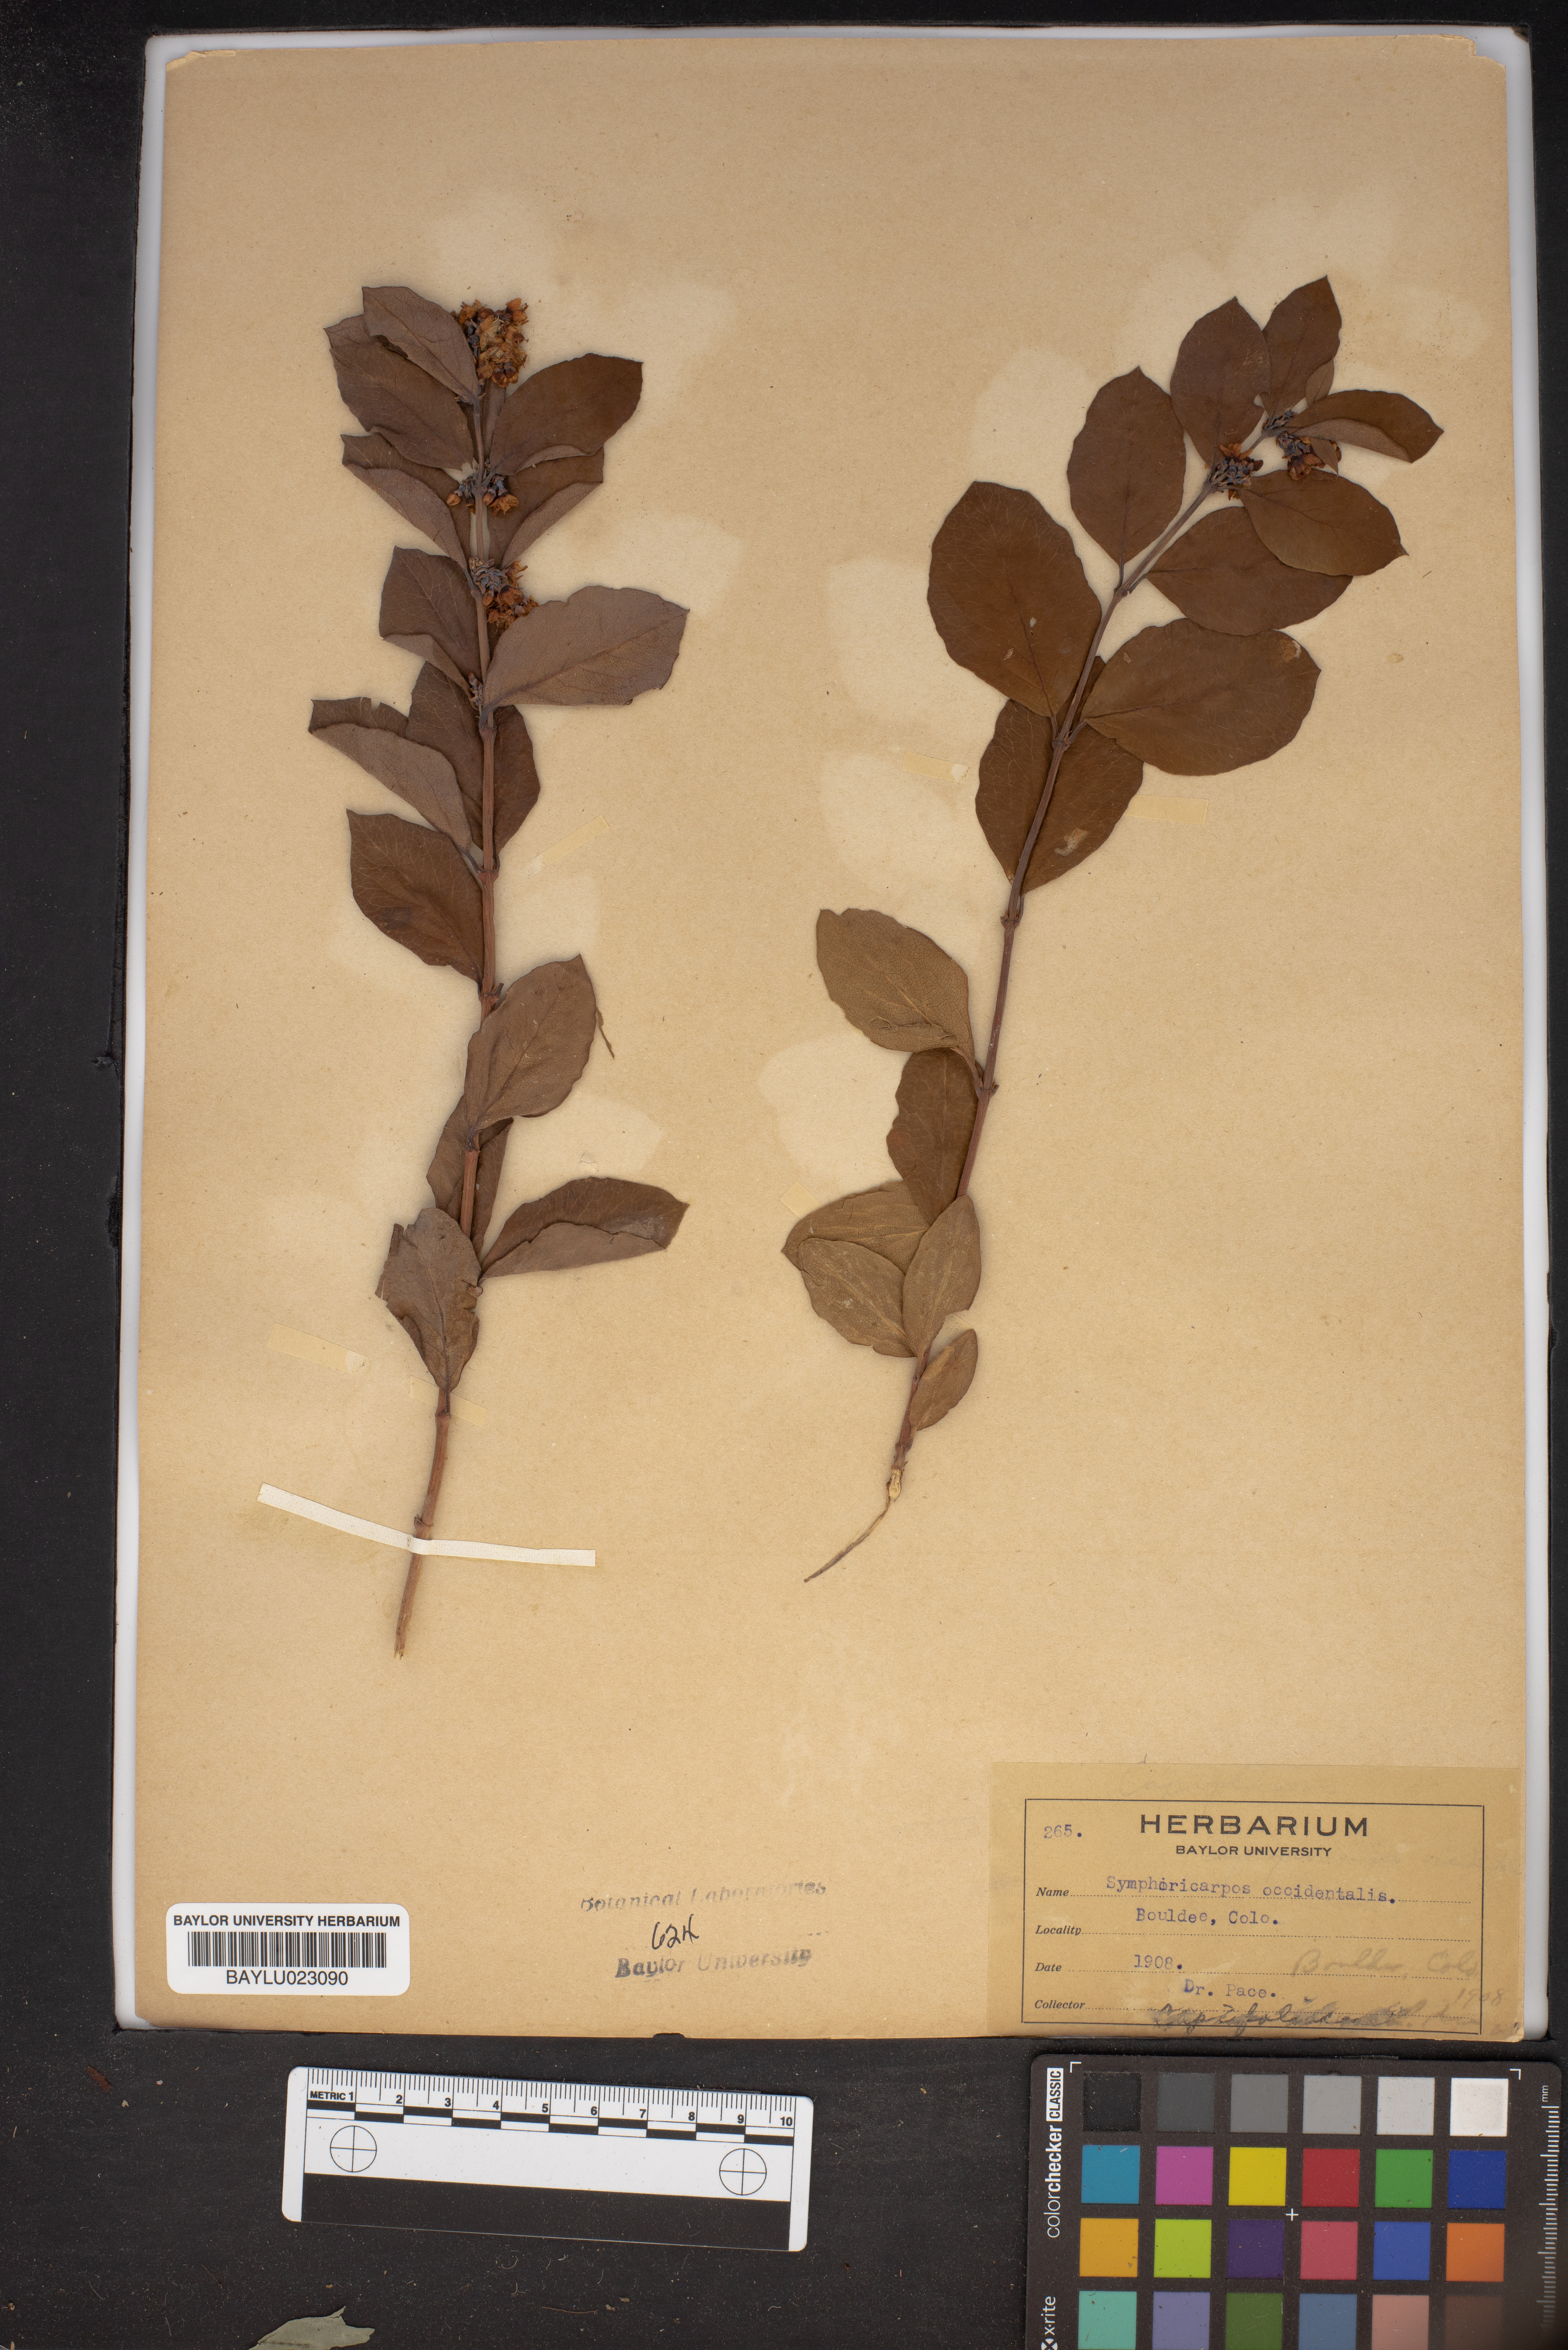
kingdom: Plantae
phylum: Tracheophyta
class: Magnoliopsida
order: Dipsacales
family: Caprifoliaceae
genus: Symphoricarpos
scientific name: Symphoricarpos occidentalis
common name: Wolfberry
